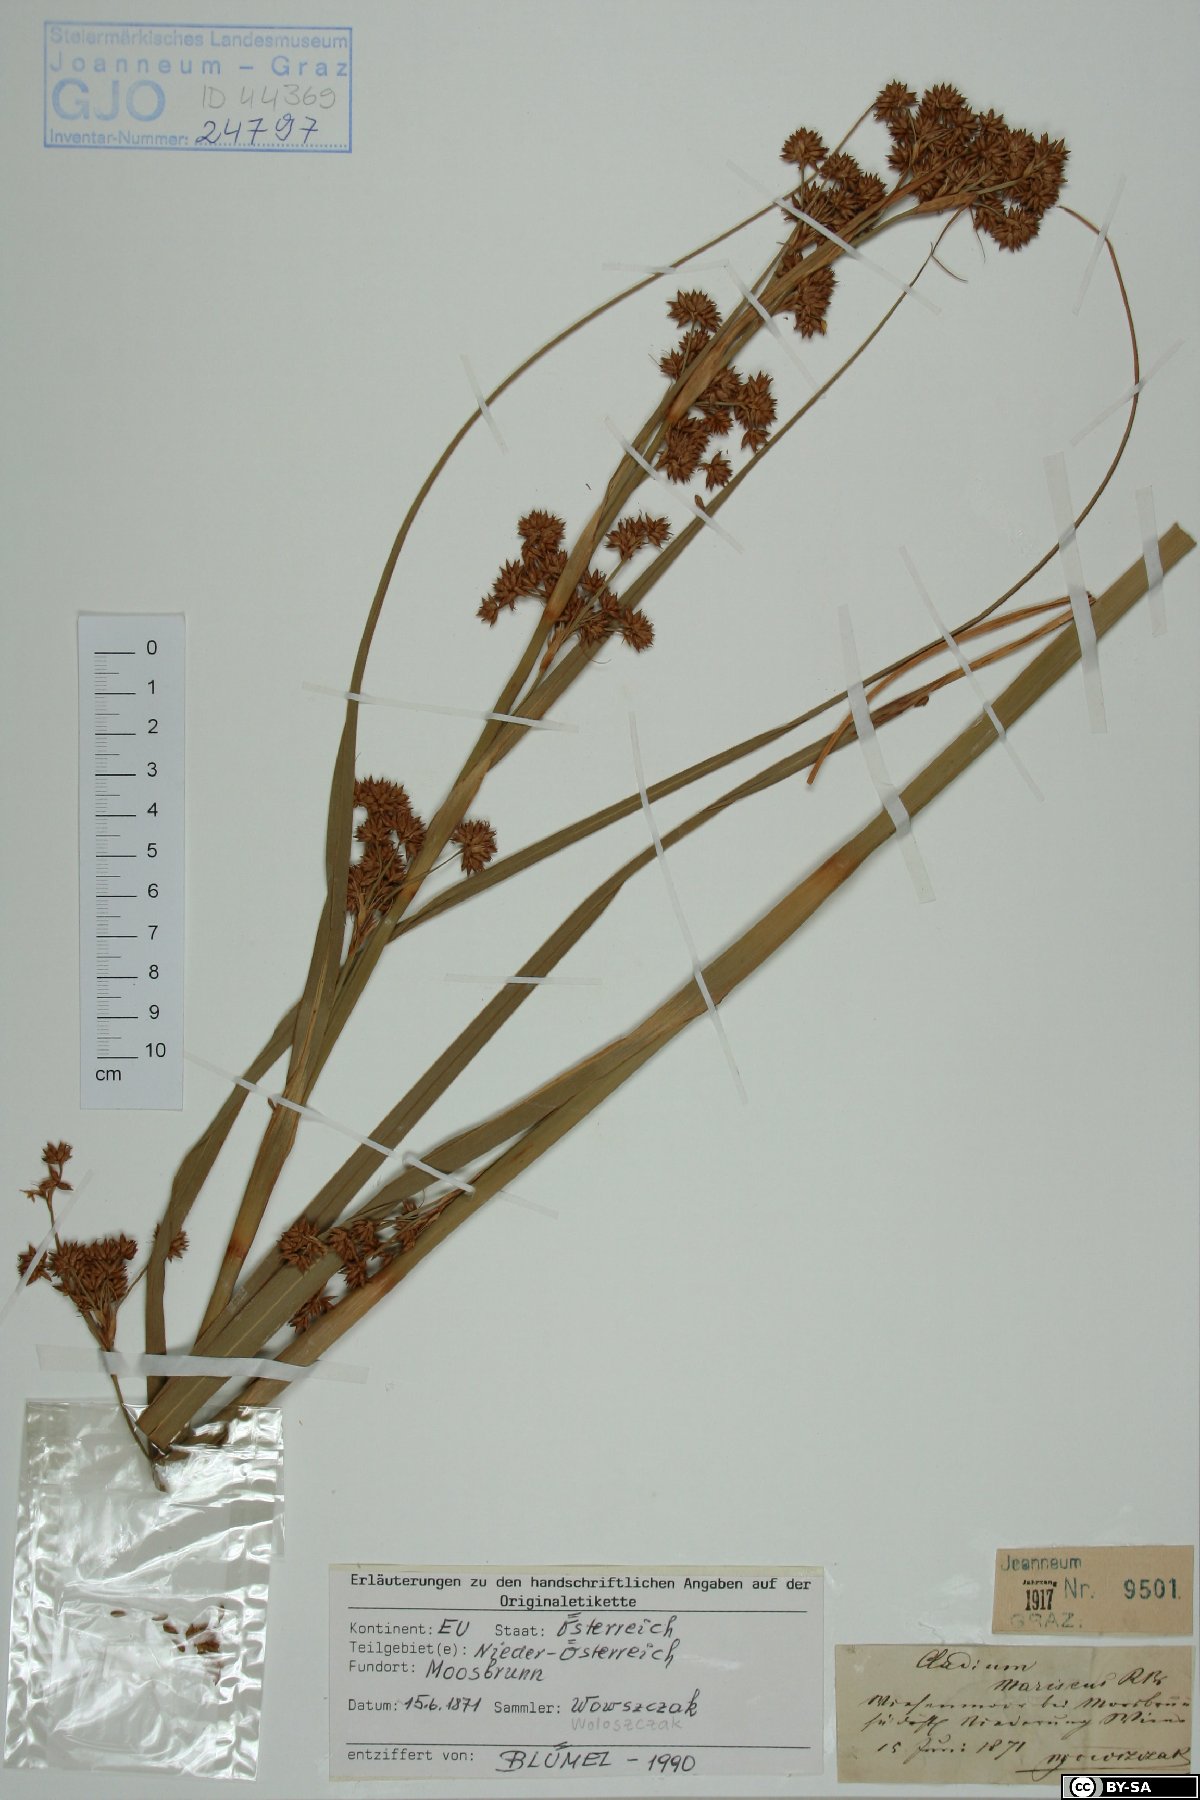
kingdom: Plantae
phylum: Tracheophyta
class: Liliopsida
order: Poales
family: Cyperaceae
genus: Cladium
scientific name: Cladium mariscus
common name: Great fen-sedge
